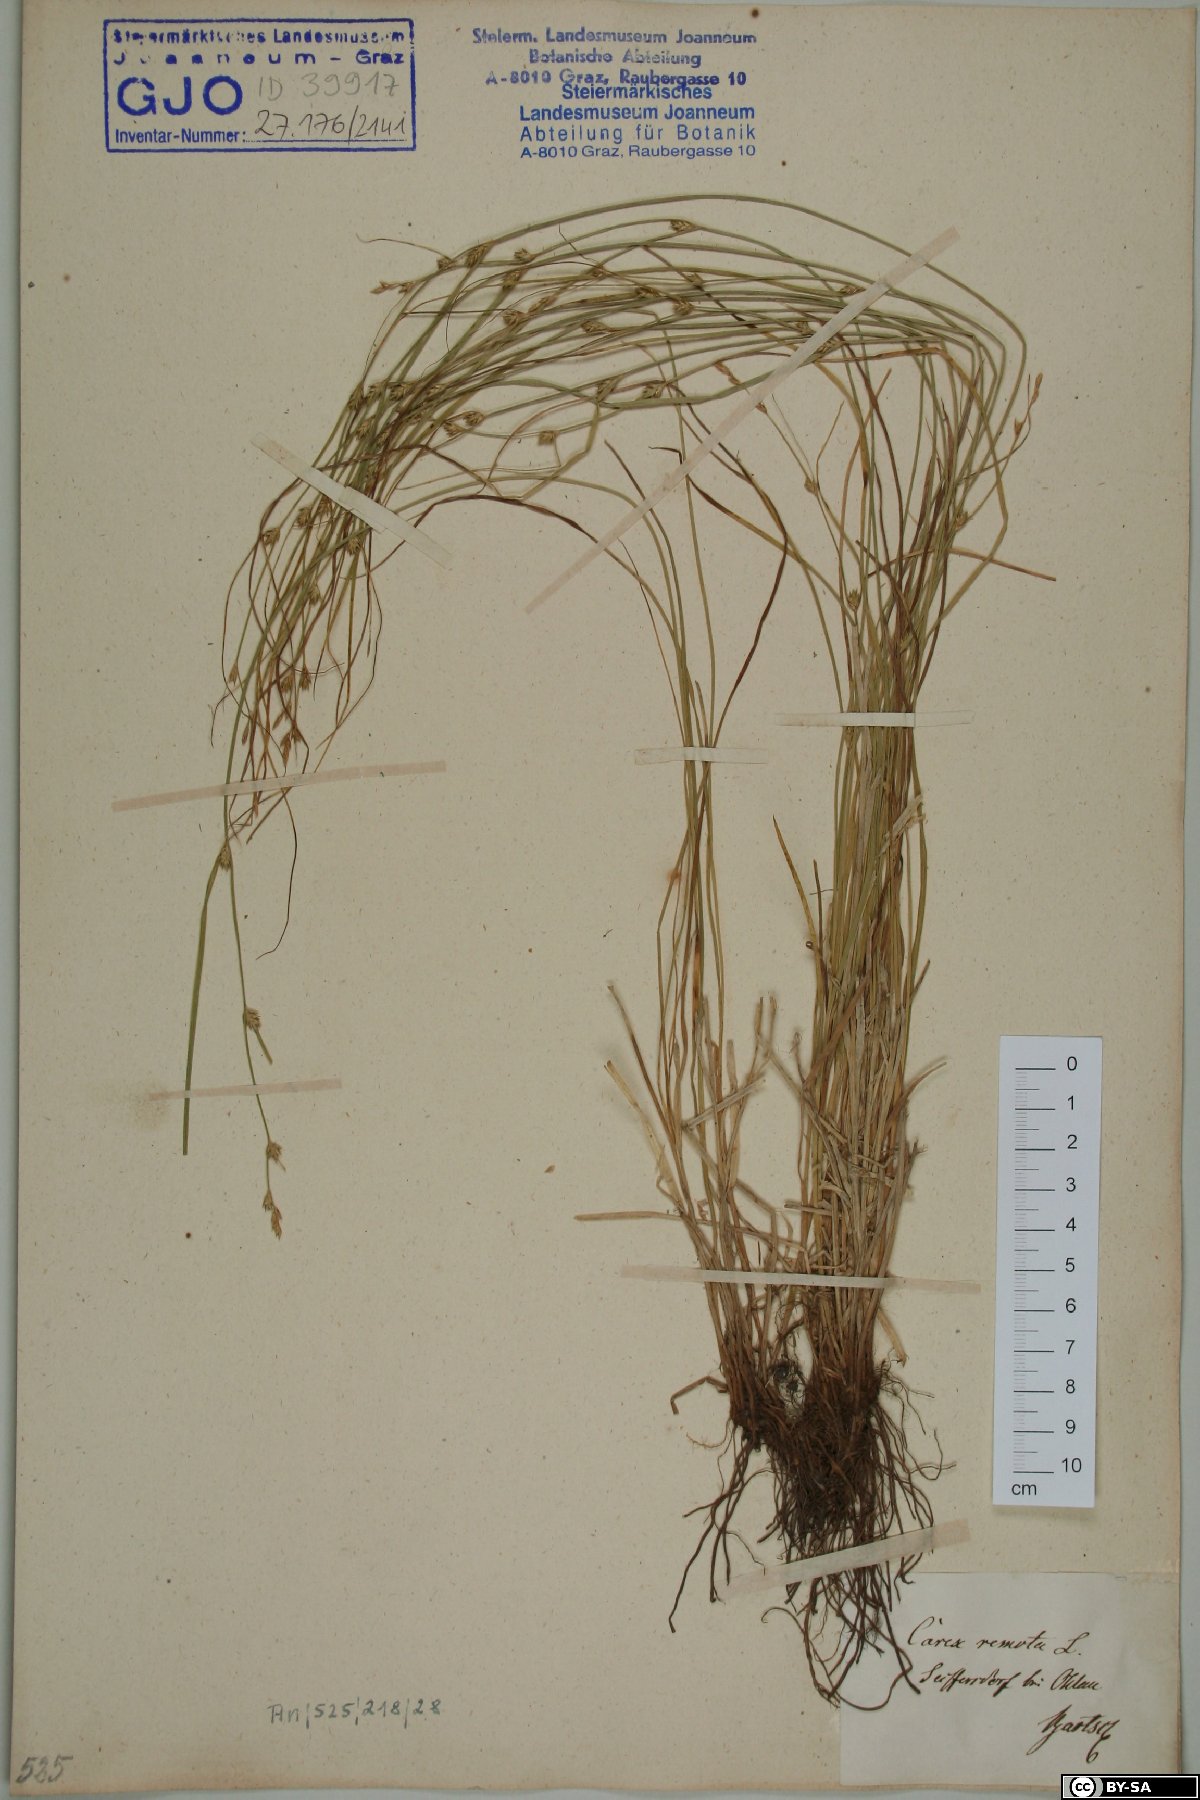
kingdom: Plantae
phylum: Tracheophyta
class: Liliopsida
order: Poales
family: Cyperaceae
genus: Carex
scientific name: Carex remota
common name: Remote sedge
